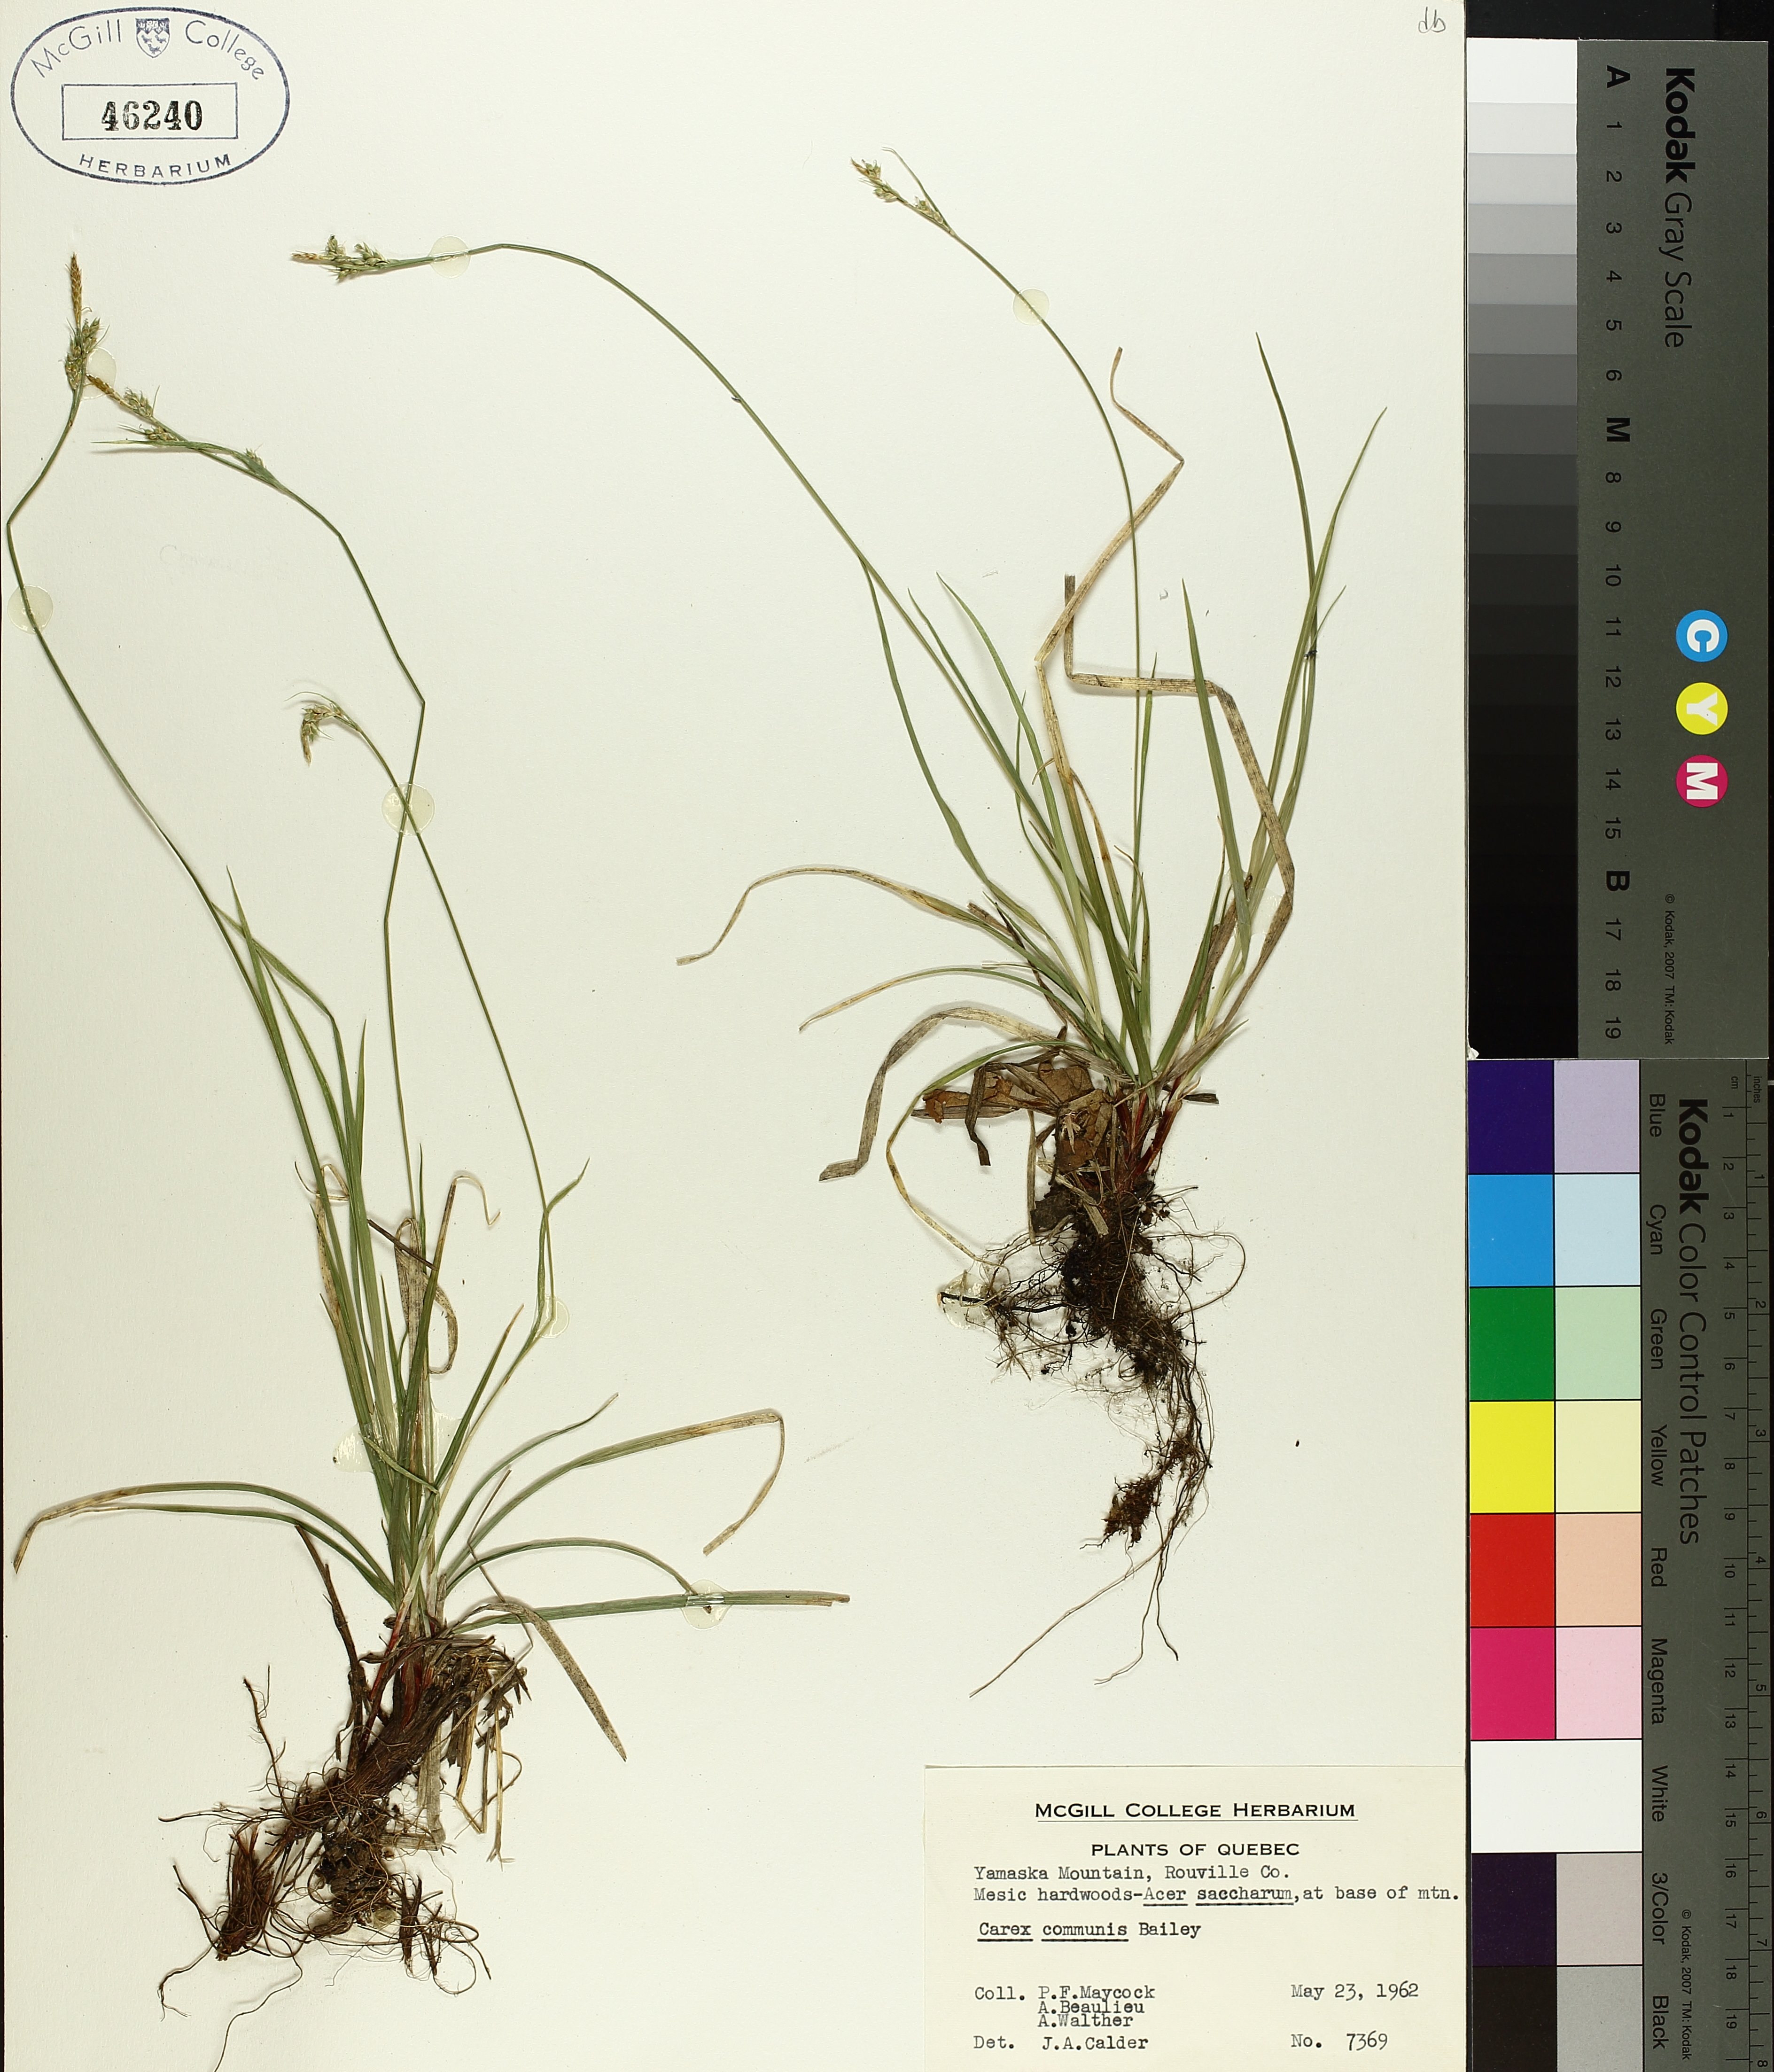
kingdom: Plantae
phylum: Tracheophyta
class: Liliopsida
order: Poales
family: Cyperaceae
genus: Carex
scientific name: Carex communis
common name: Colonial oak sedge
